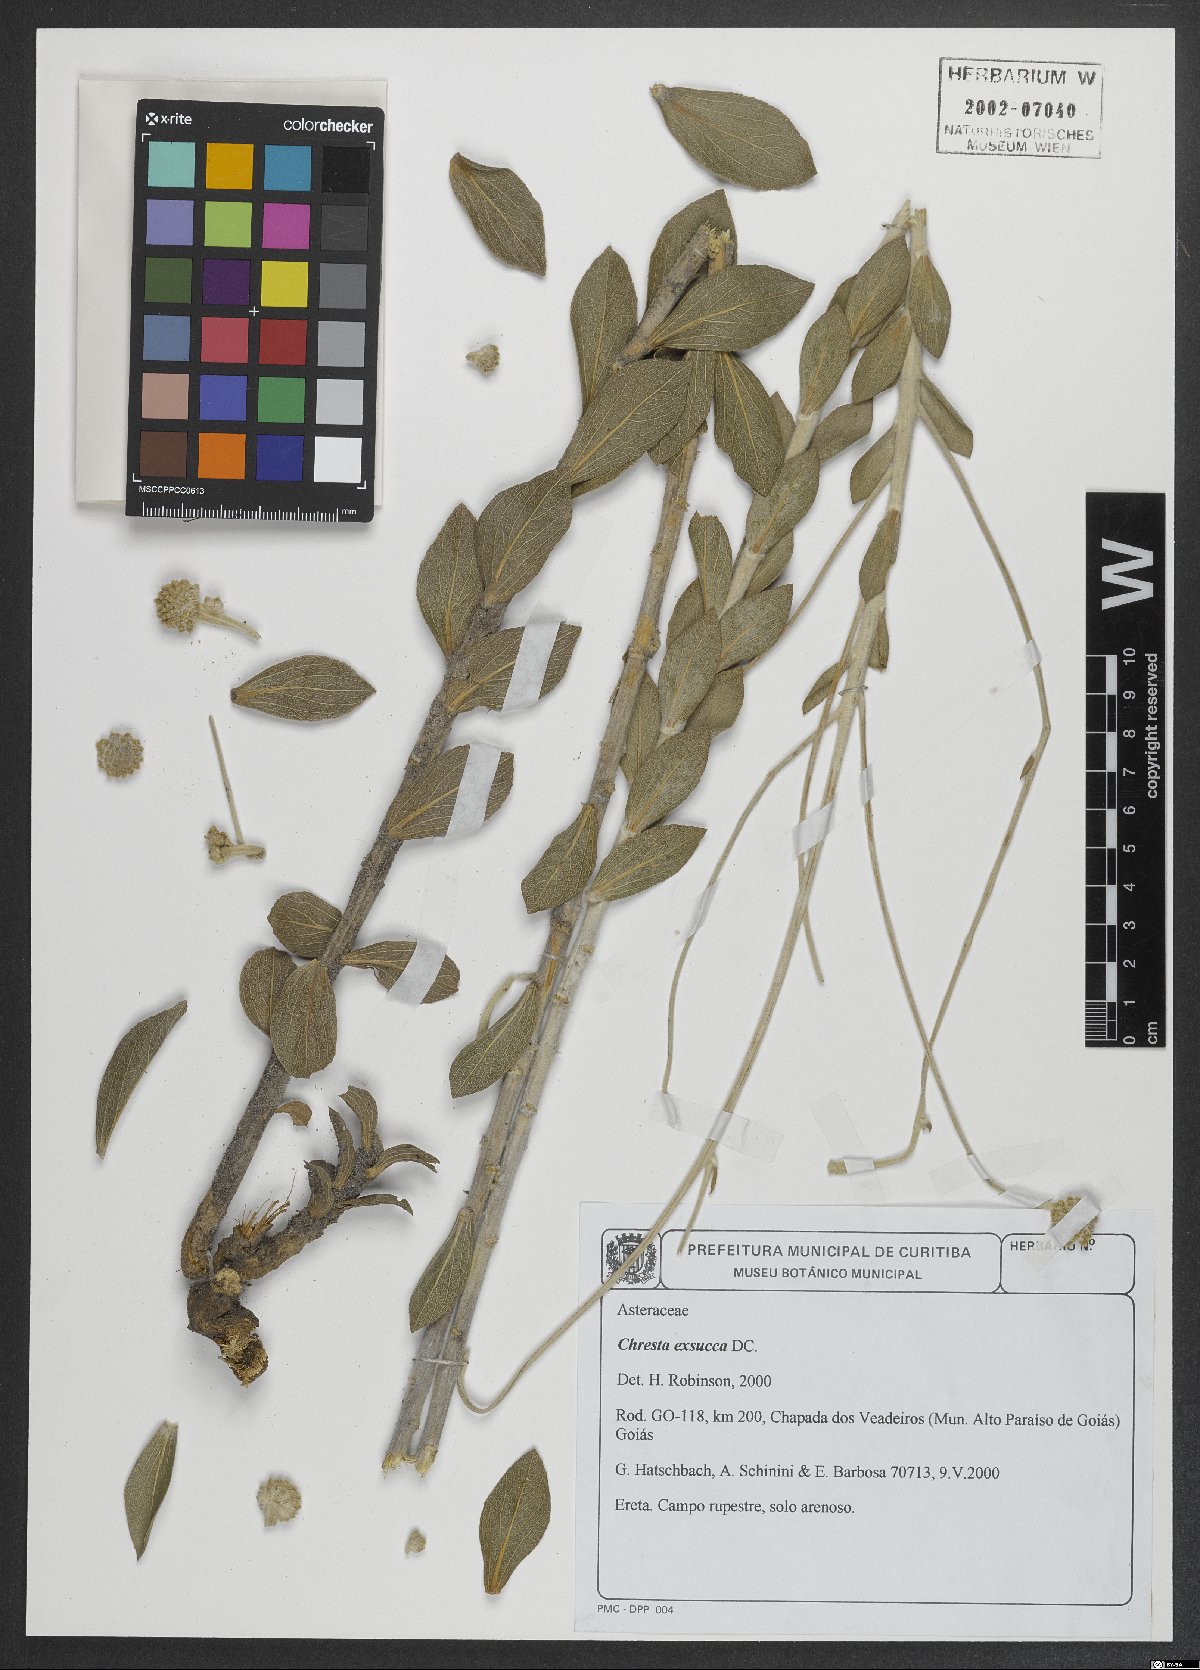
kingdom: Plantae
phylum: Tracheophyta
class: Magnoliopsida
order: Asterales
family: Asteraceae
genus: Chresta
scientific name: Chresta exsucca
